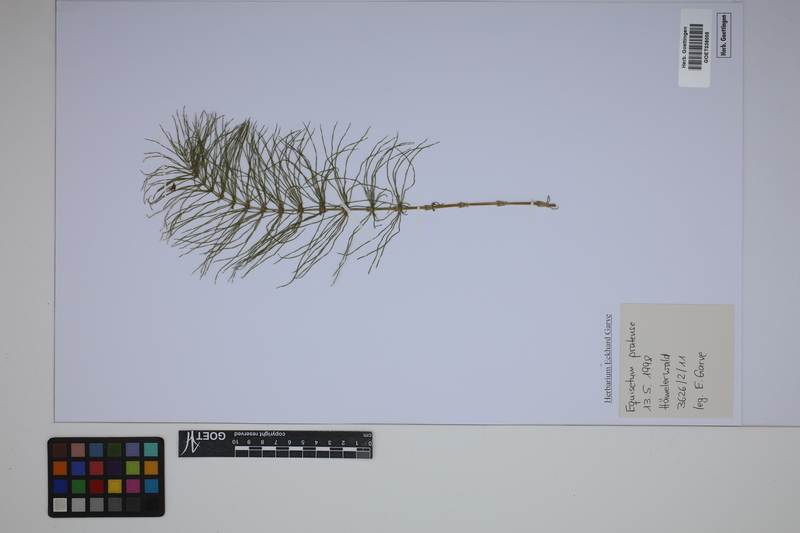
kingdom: Plantae
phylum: Tracheophyta
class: Polypodiopsida
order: Equisetales
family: Equisetaceae
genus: Equisetum
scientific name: Equisetum pratense
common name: Meadow horsetail
